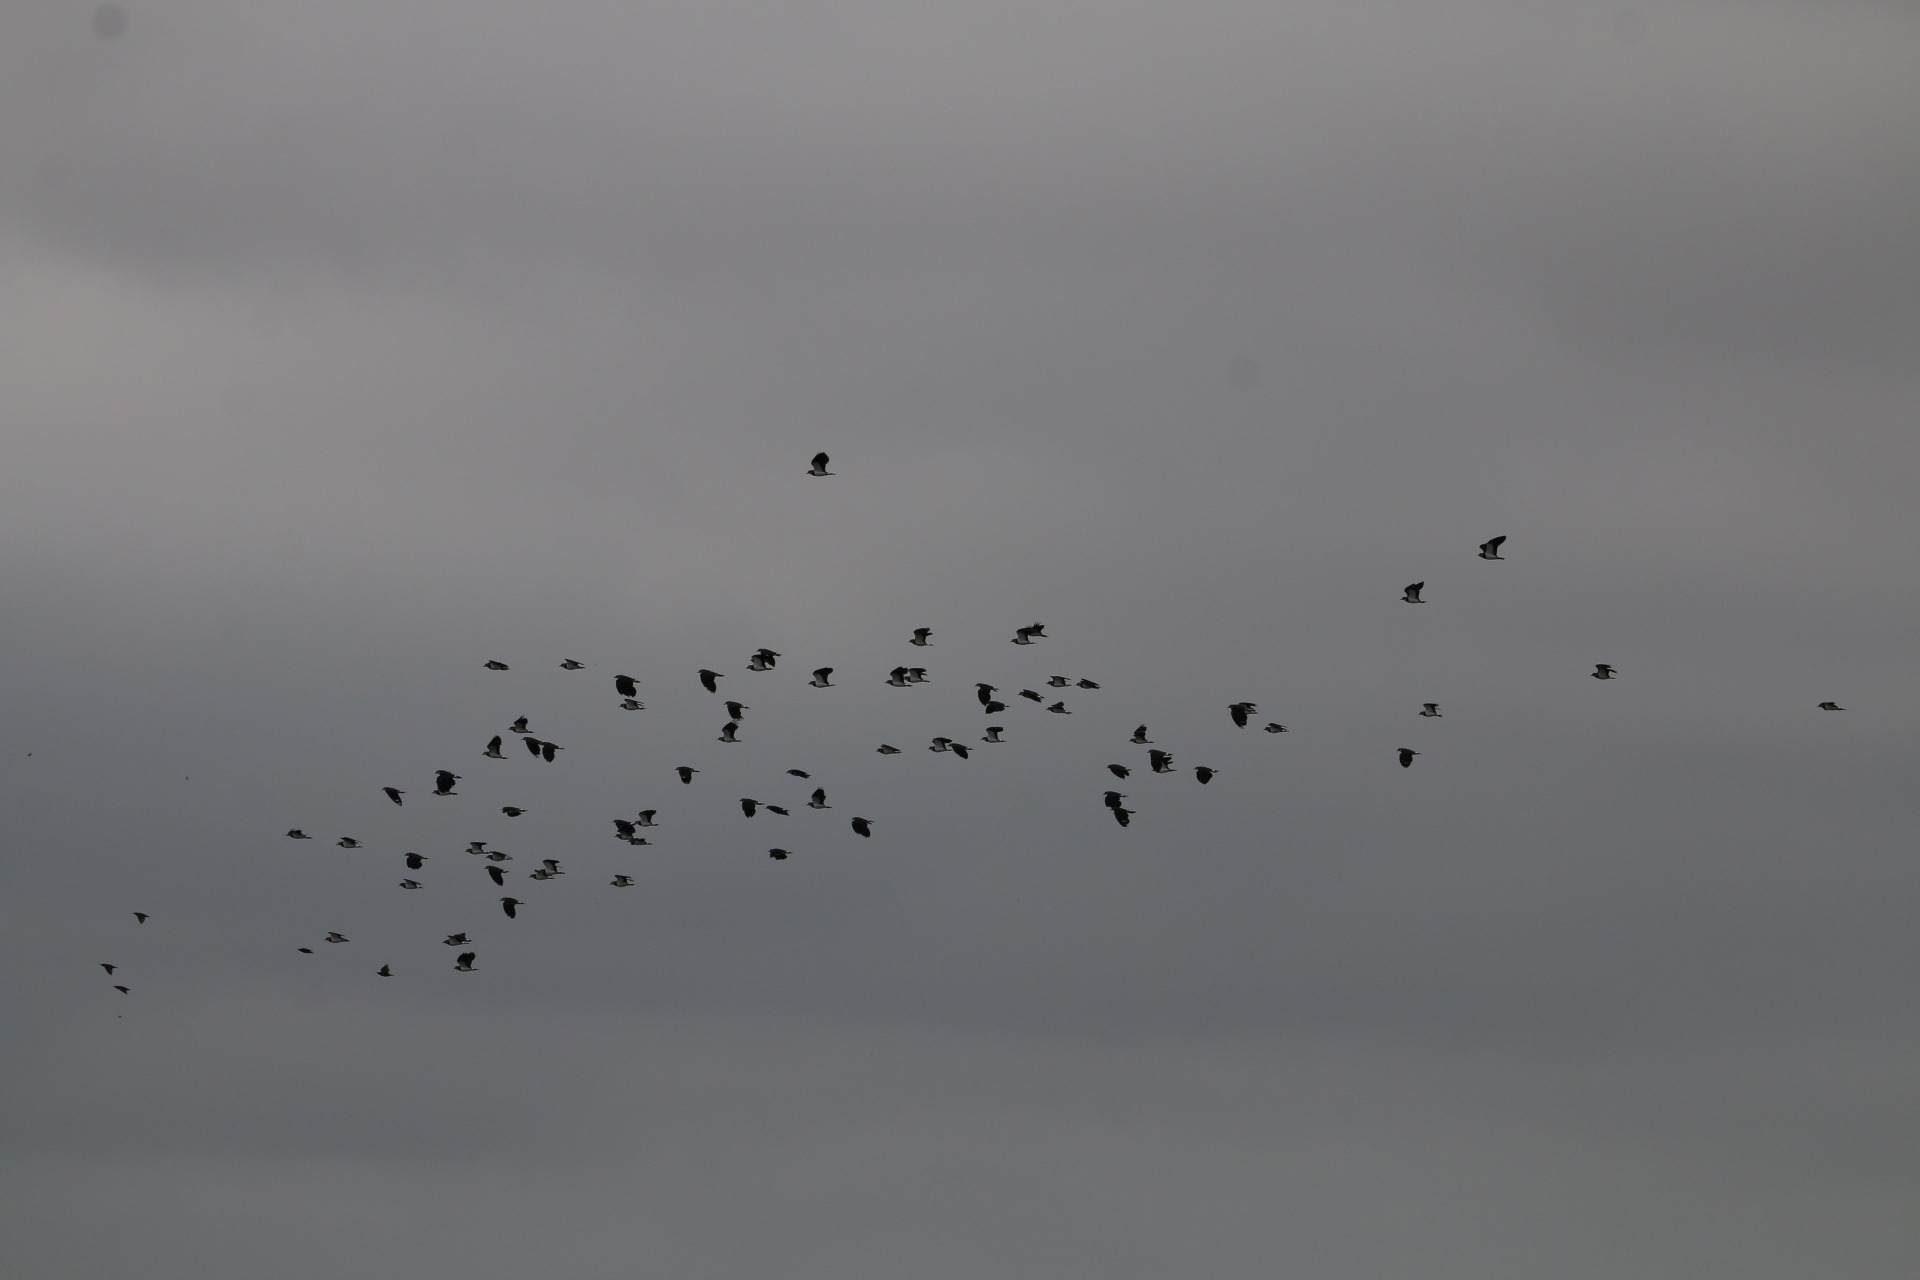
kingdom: Animalia
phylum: Chordata
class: Aves
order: Charadriiformes
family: Charadriidae
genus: Vanellus
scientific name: Vanellus vanellus
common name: Vibe
